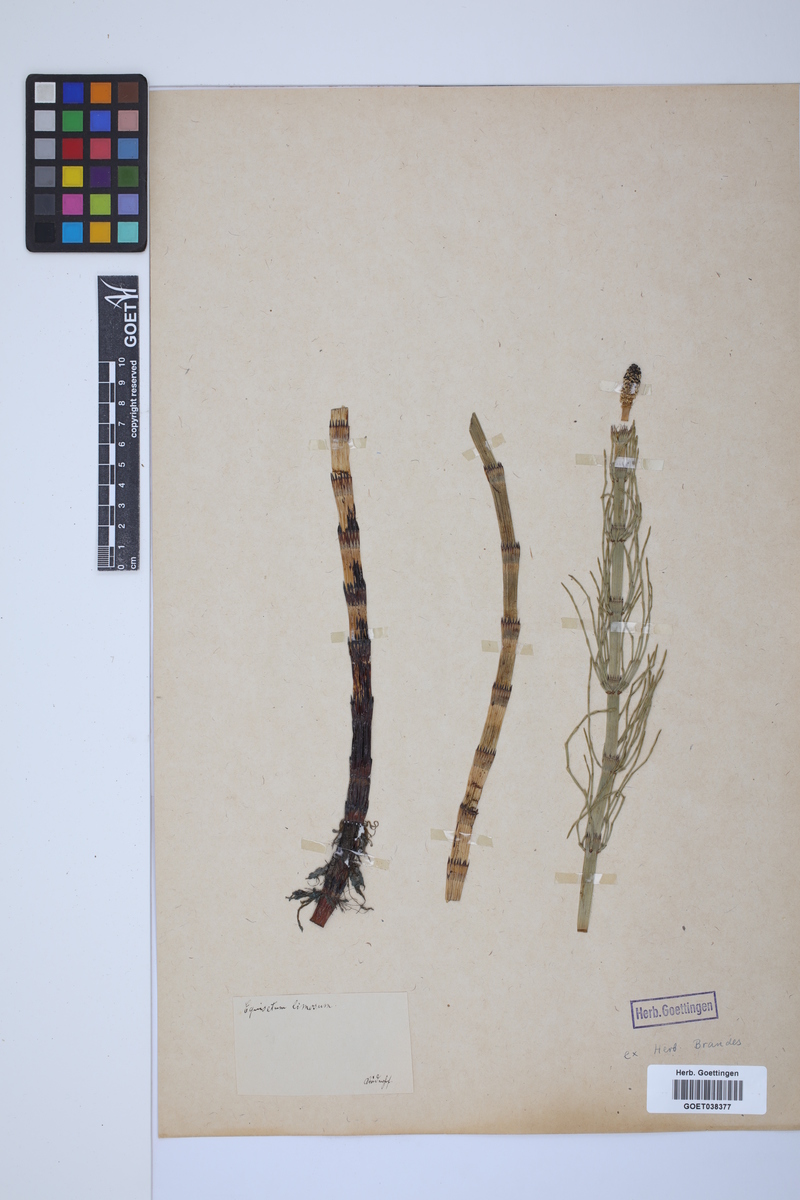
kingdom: Plantae
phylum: Tracheophyta
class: Polypodiopsida
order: Equisetales
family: Equisetaceae
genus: Equisetum
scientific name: Equisetum fluviatile
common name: Water horsetail
